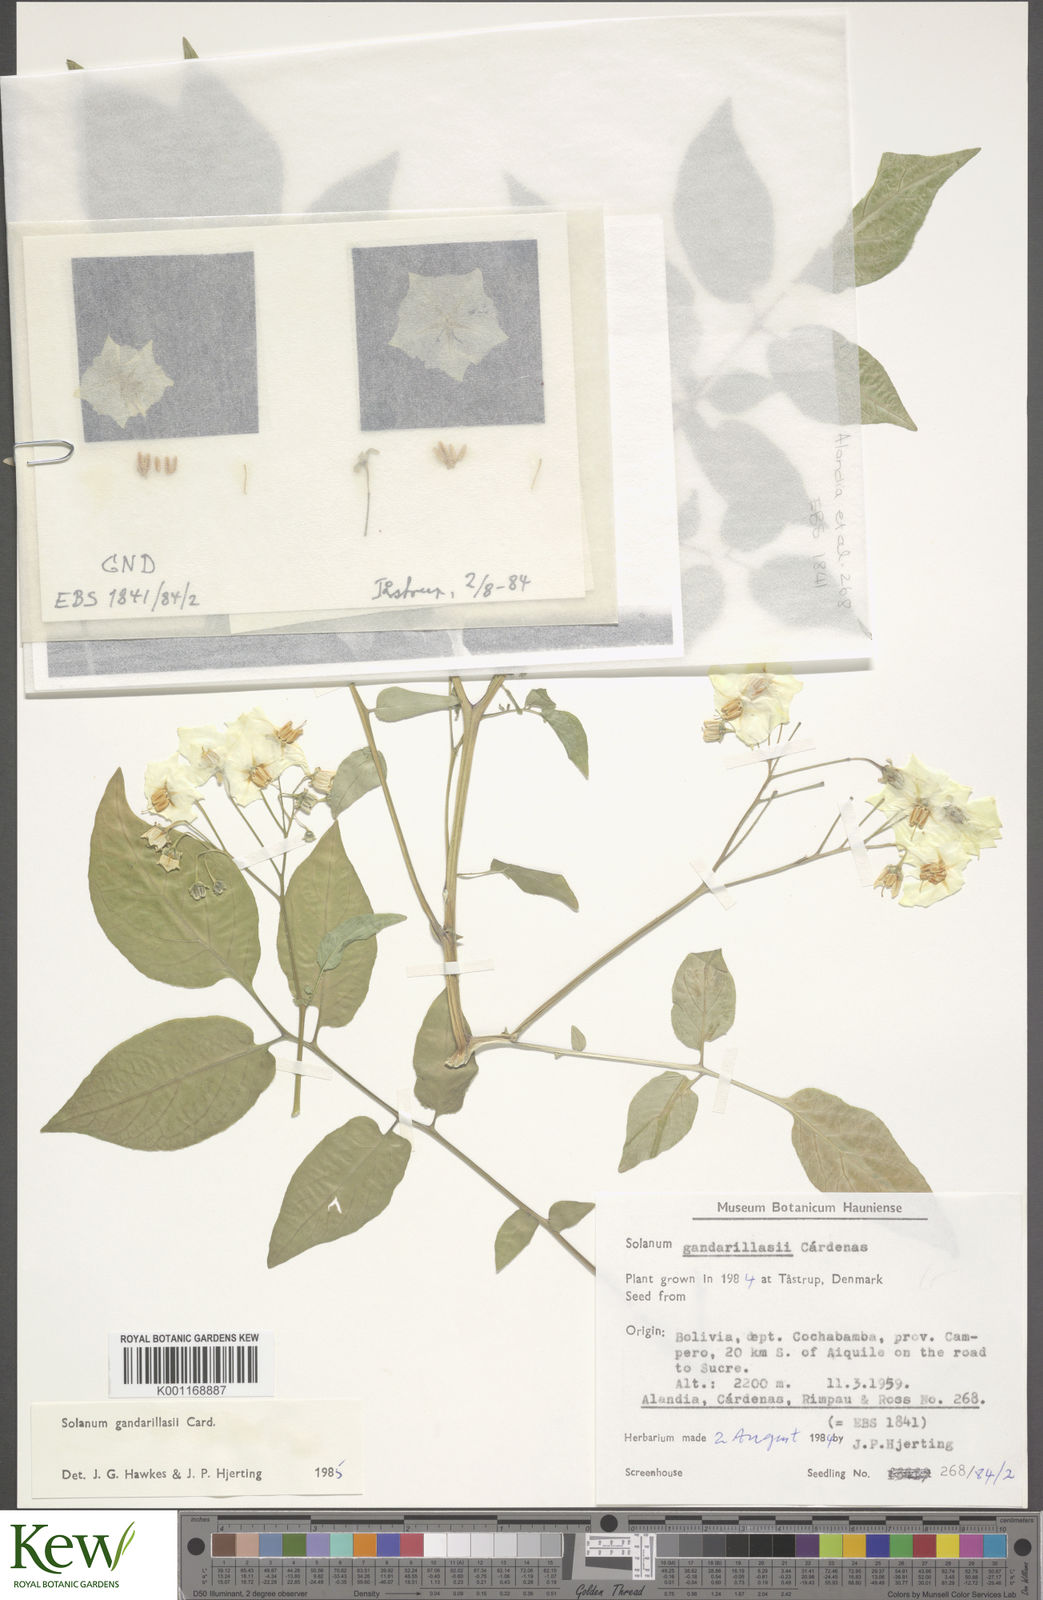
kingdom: Plantae
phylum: Tracheophyta
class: Magnoliopsida
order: Solanales
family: Solanaceae
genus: Solanum
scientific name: Solanum
